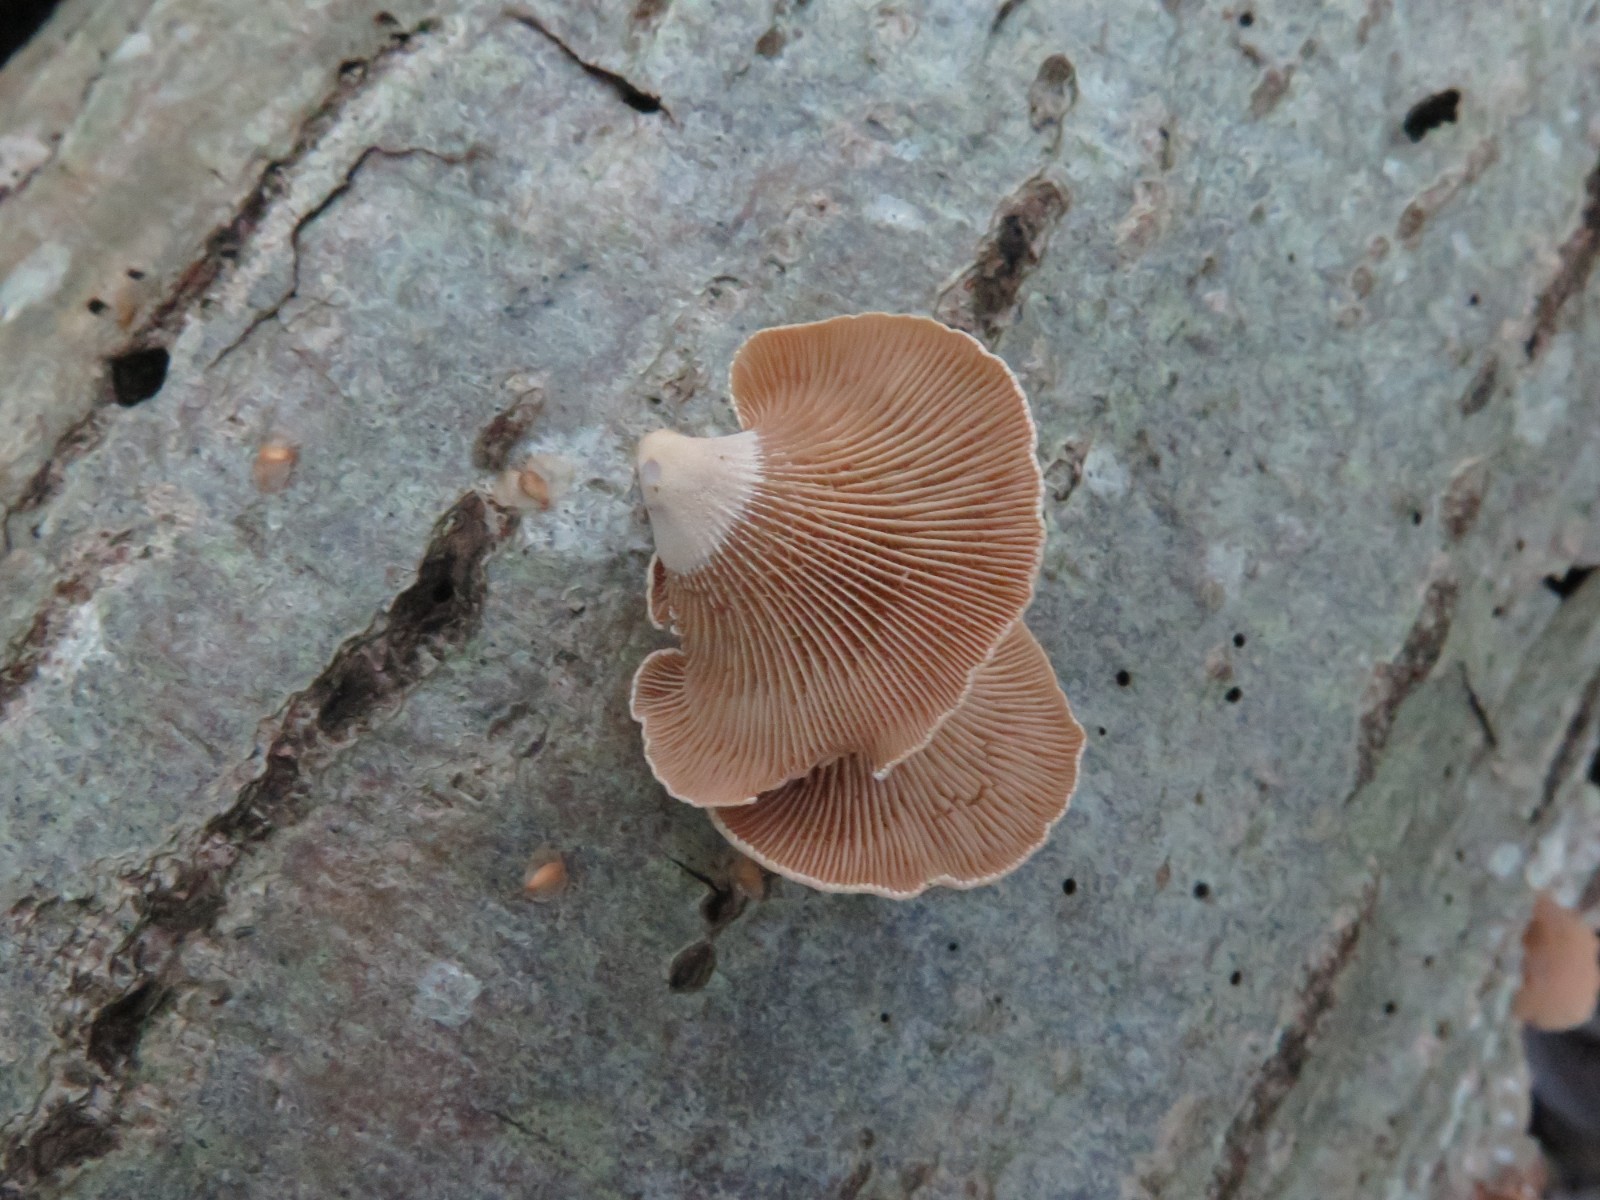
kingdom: Fungi
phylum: Basidiomycota
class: Agaricomycetes
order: Agaricales
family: Mycenaceae
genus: Panellus
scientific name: Panellus stipticus
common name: kliddet epaulethat
